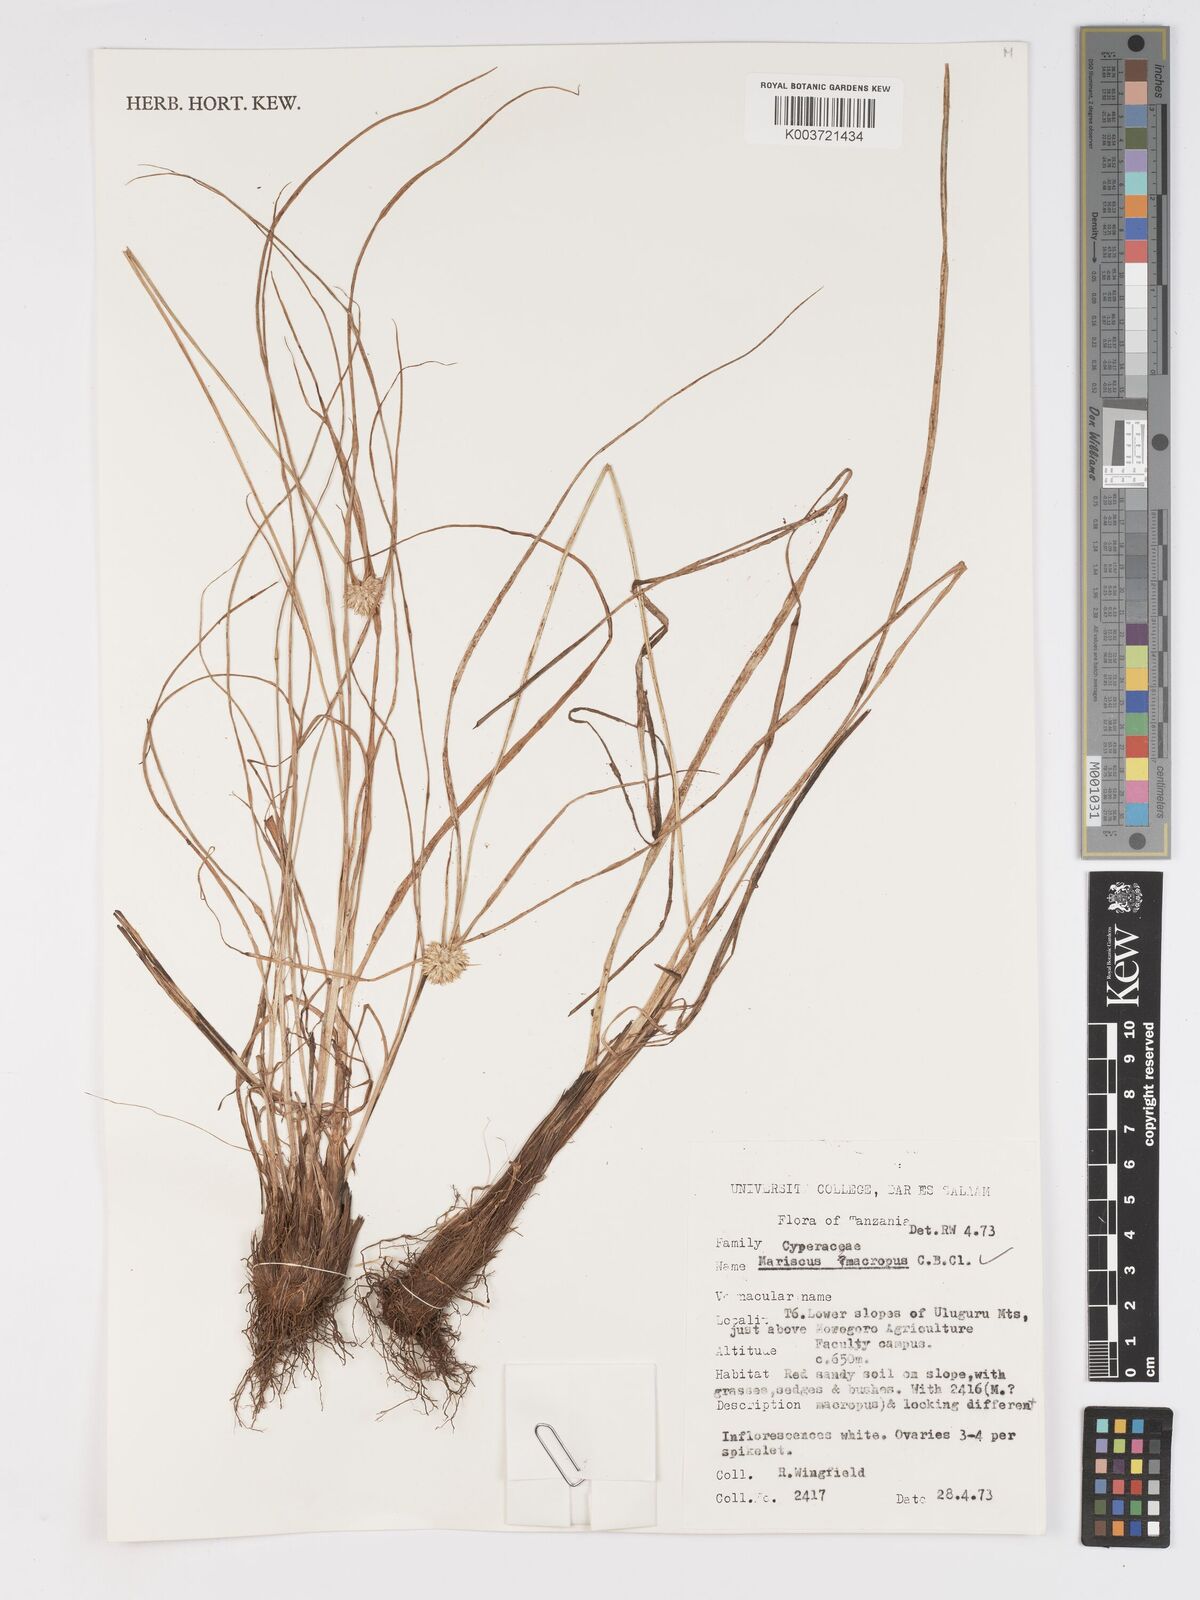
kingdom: Plantae
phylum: Tracheophyta
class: Liliopsida
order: Poales
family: Cyperaceae
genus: Cyperus
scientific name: Cyperus mollipes
